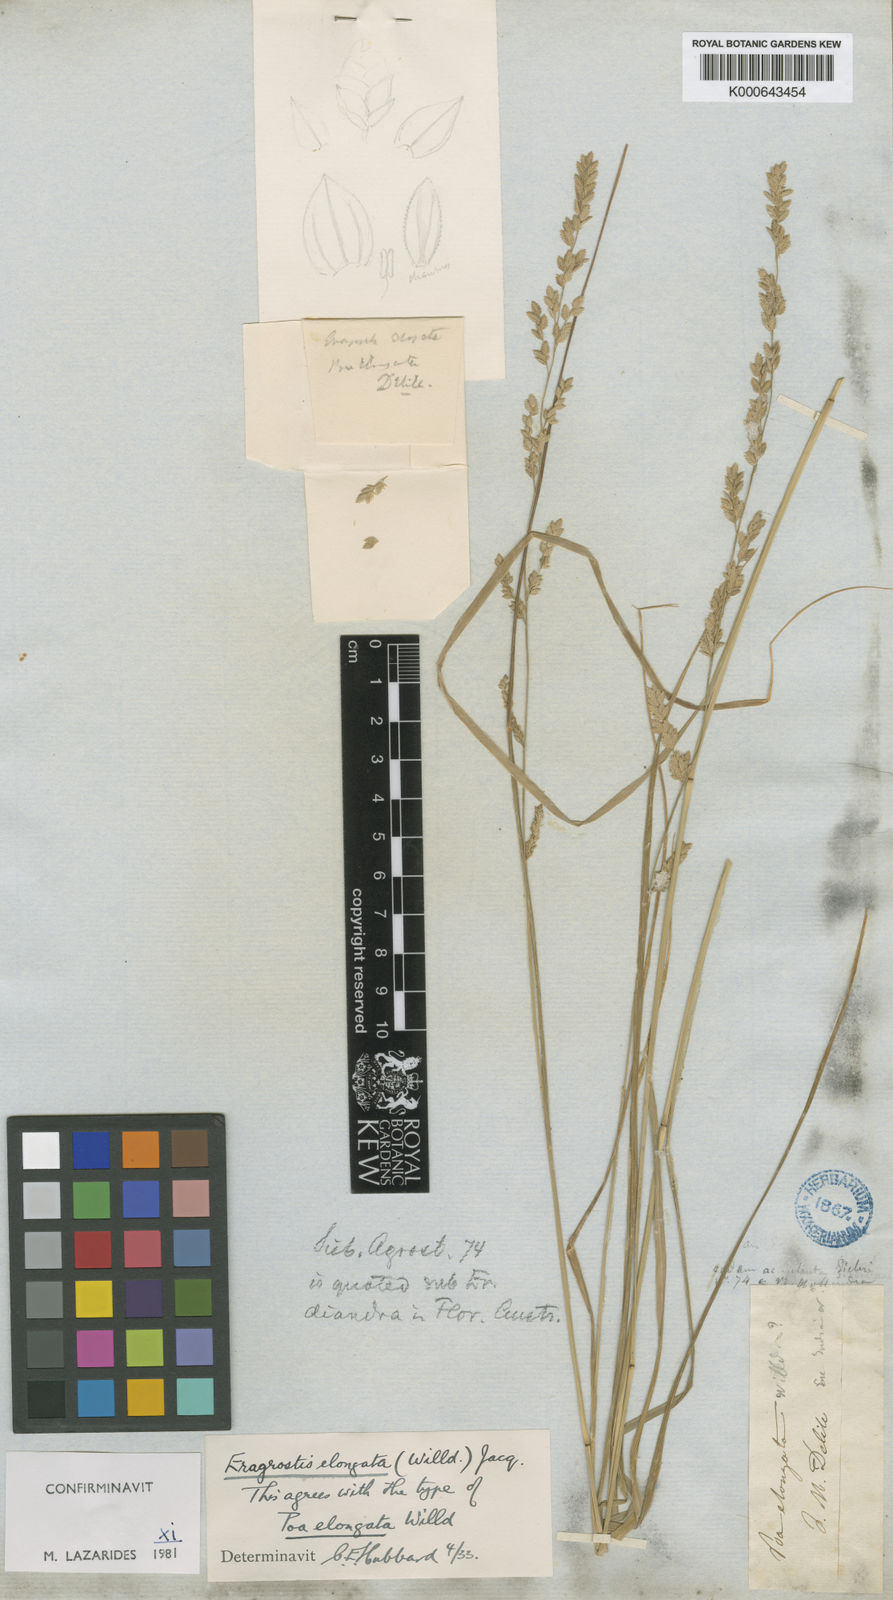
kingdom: Plantae
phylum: Tracheophyta
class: Liliopsida
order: Poales
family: Poaceae
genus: Eragrostis
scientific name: Eragrostis elongata
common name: Long lovegrass
